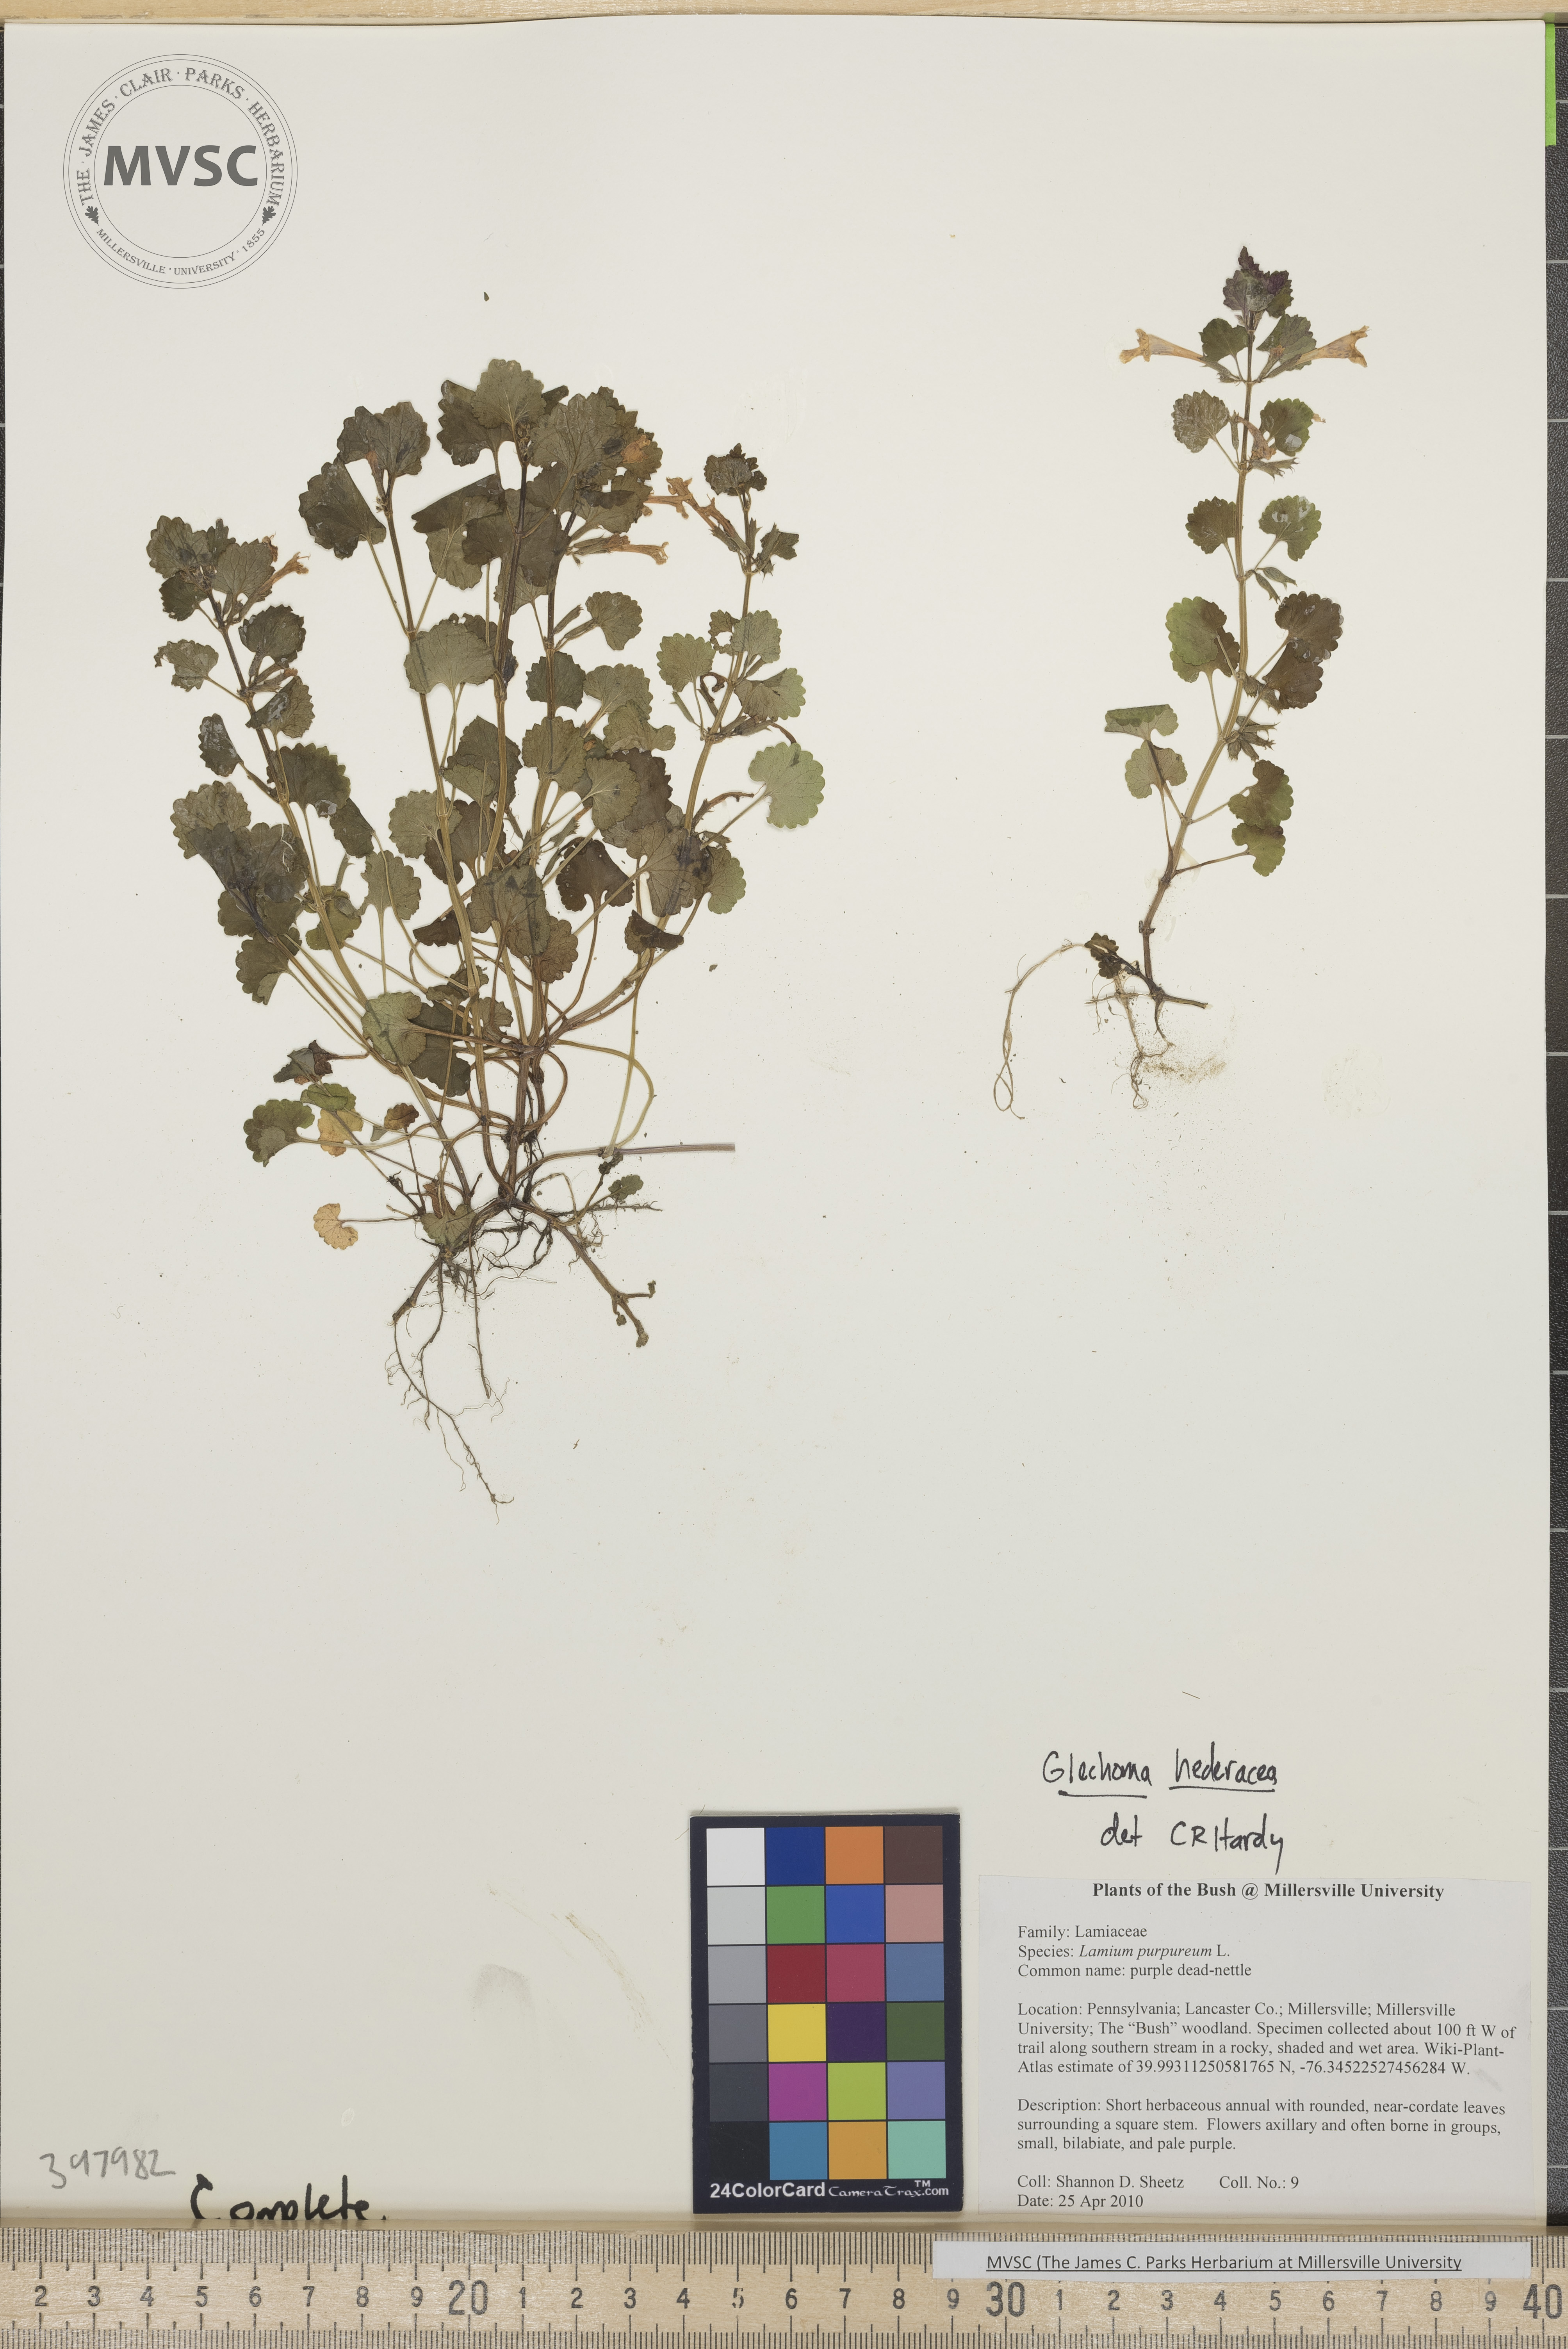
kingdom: Plantae
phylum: Tracheophyta
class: Magnoliopsida
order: Lamiales
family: Lamiaceae
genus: Glechoma
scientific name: Glechoma hederacea
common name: Gill-over-the-ground
